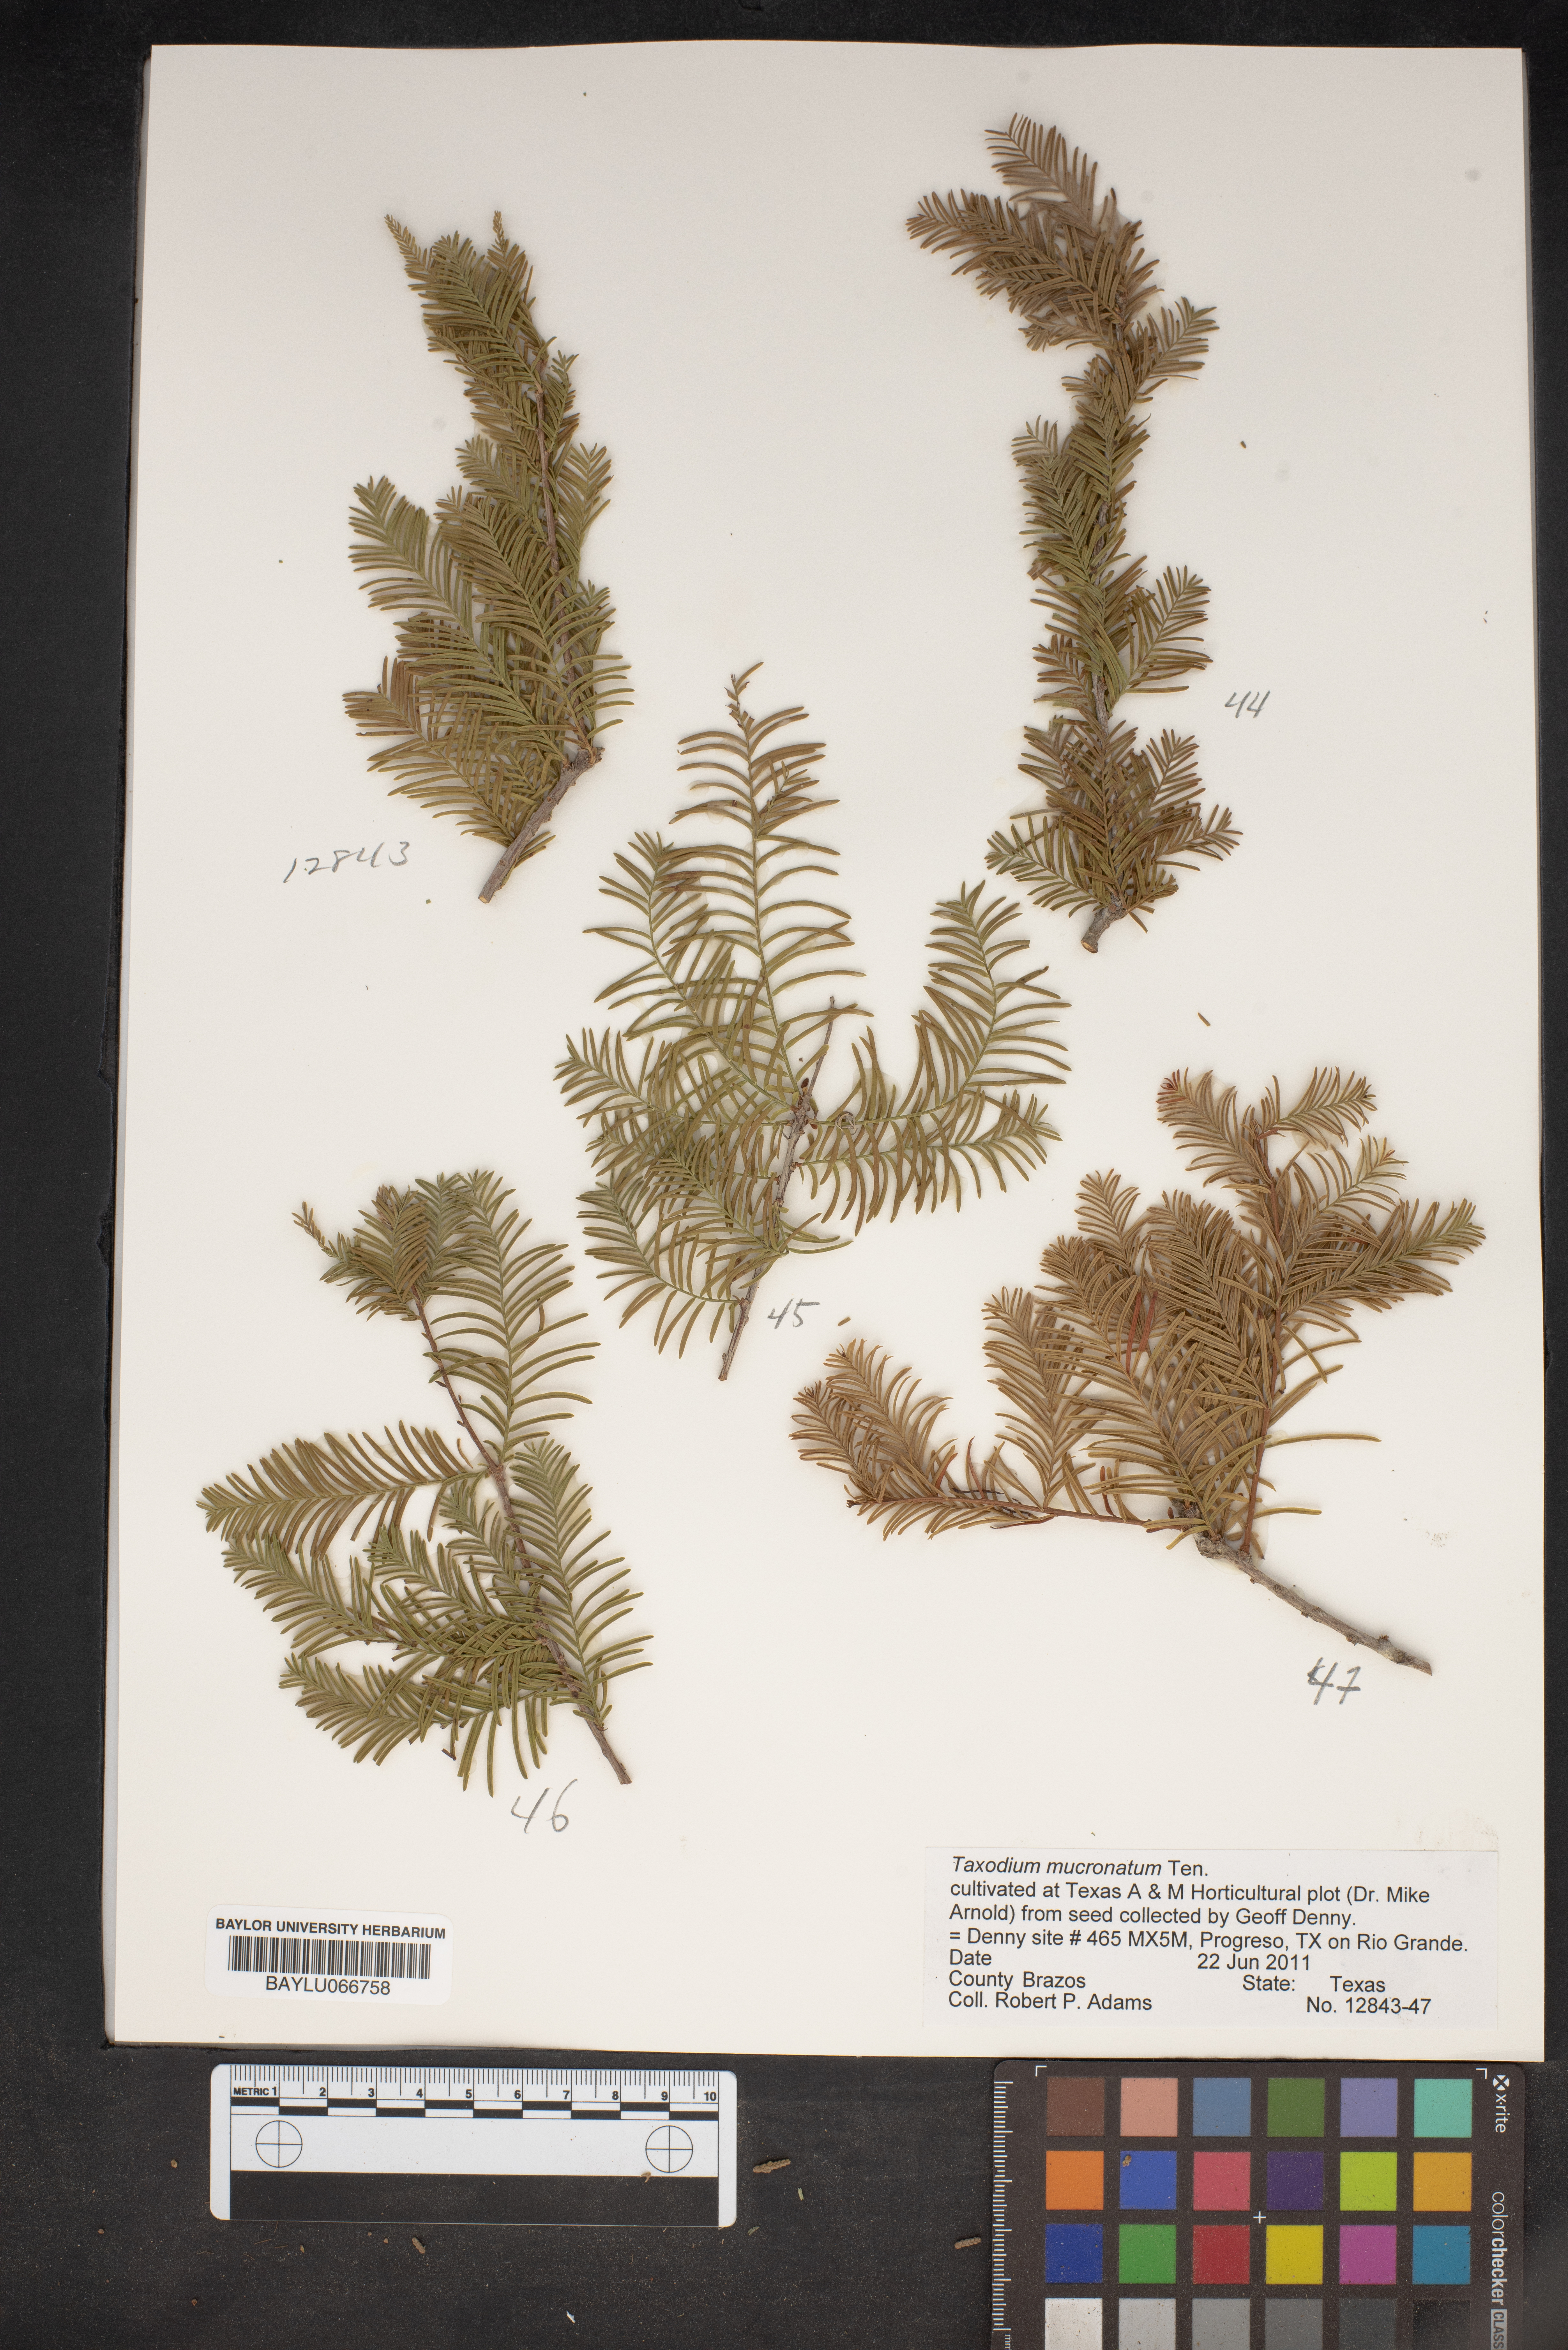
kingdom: Plantae
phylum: Tracheophyta
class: Pinopsida
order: Pinales
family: Cupressaceae
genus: Taxodium
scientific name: Taxodium mucronatum
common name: Montezume bald cypress
